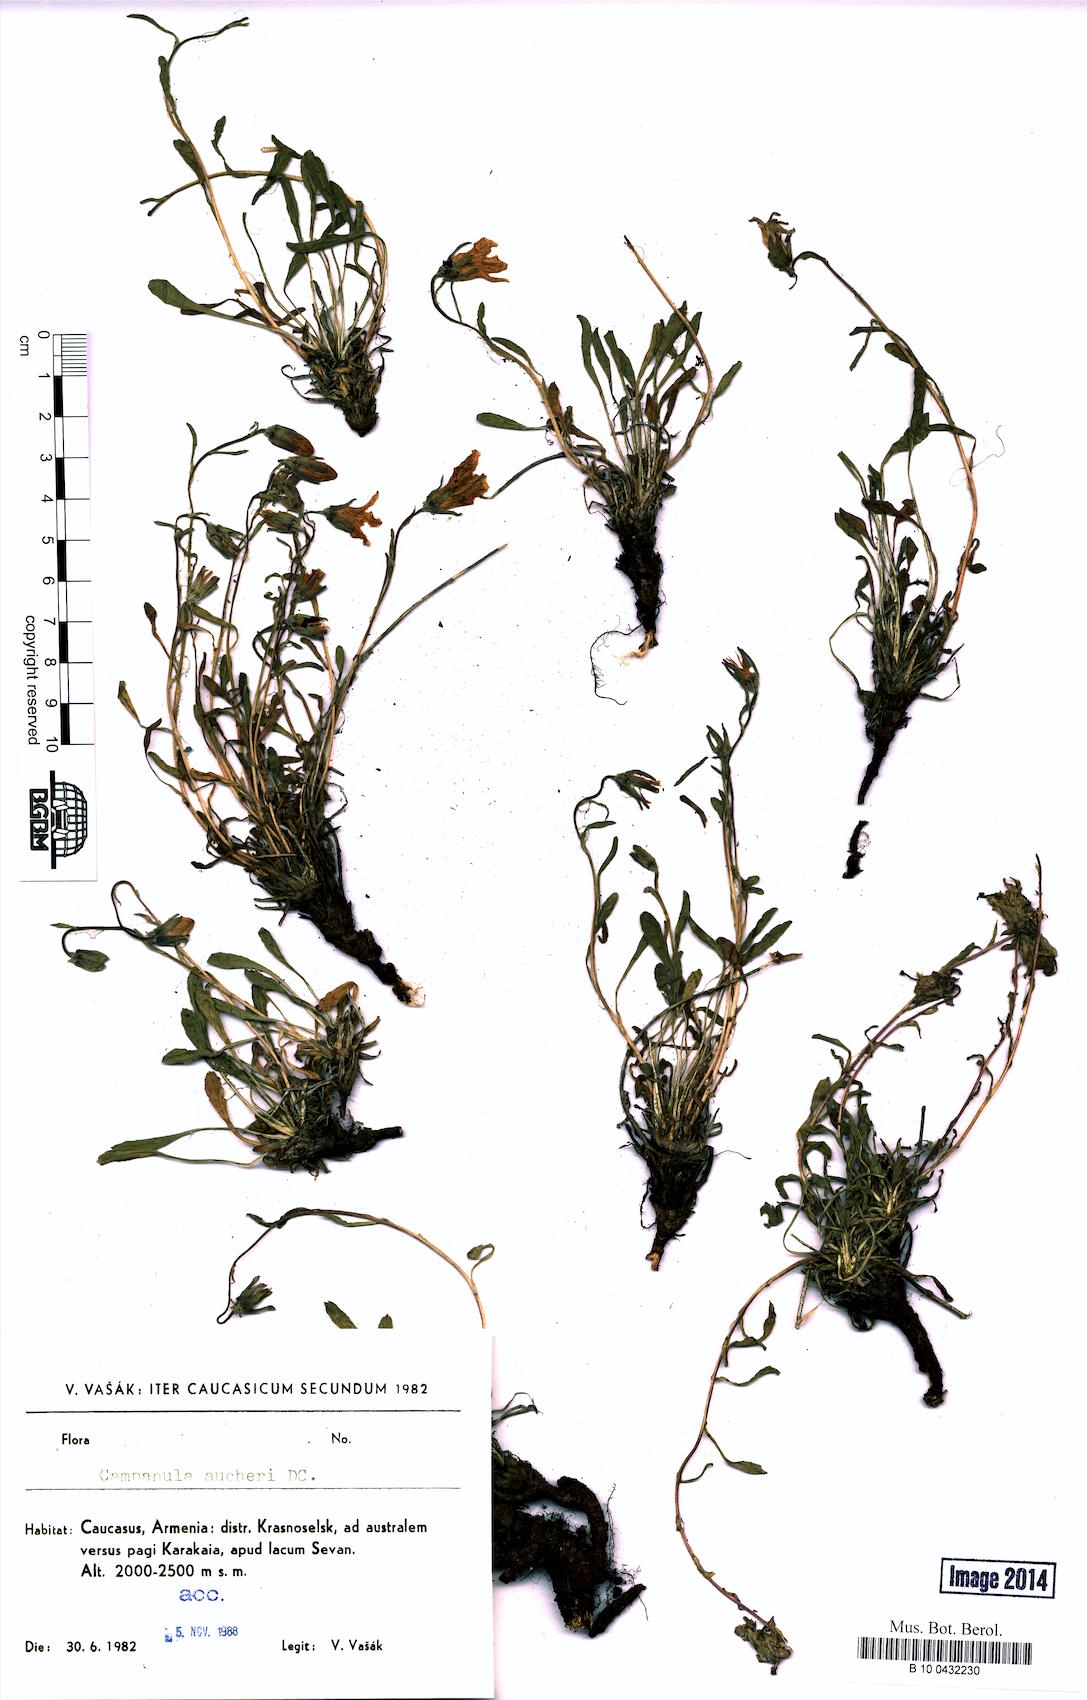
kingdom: Plantae
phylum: Tracheophyta
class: Magnoliopsida
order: Asterales
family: Campanulaceae
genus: Campanula
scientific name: Campanula saxifraga
